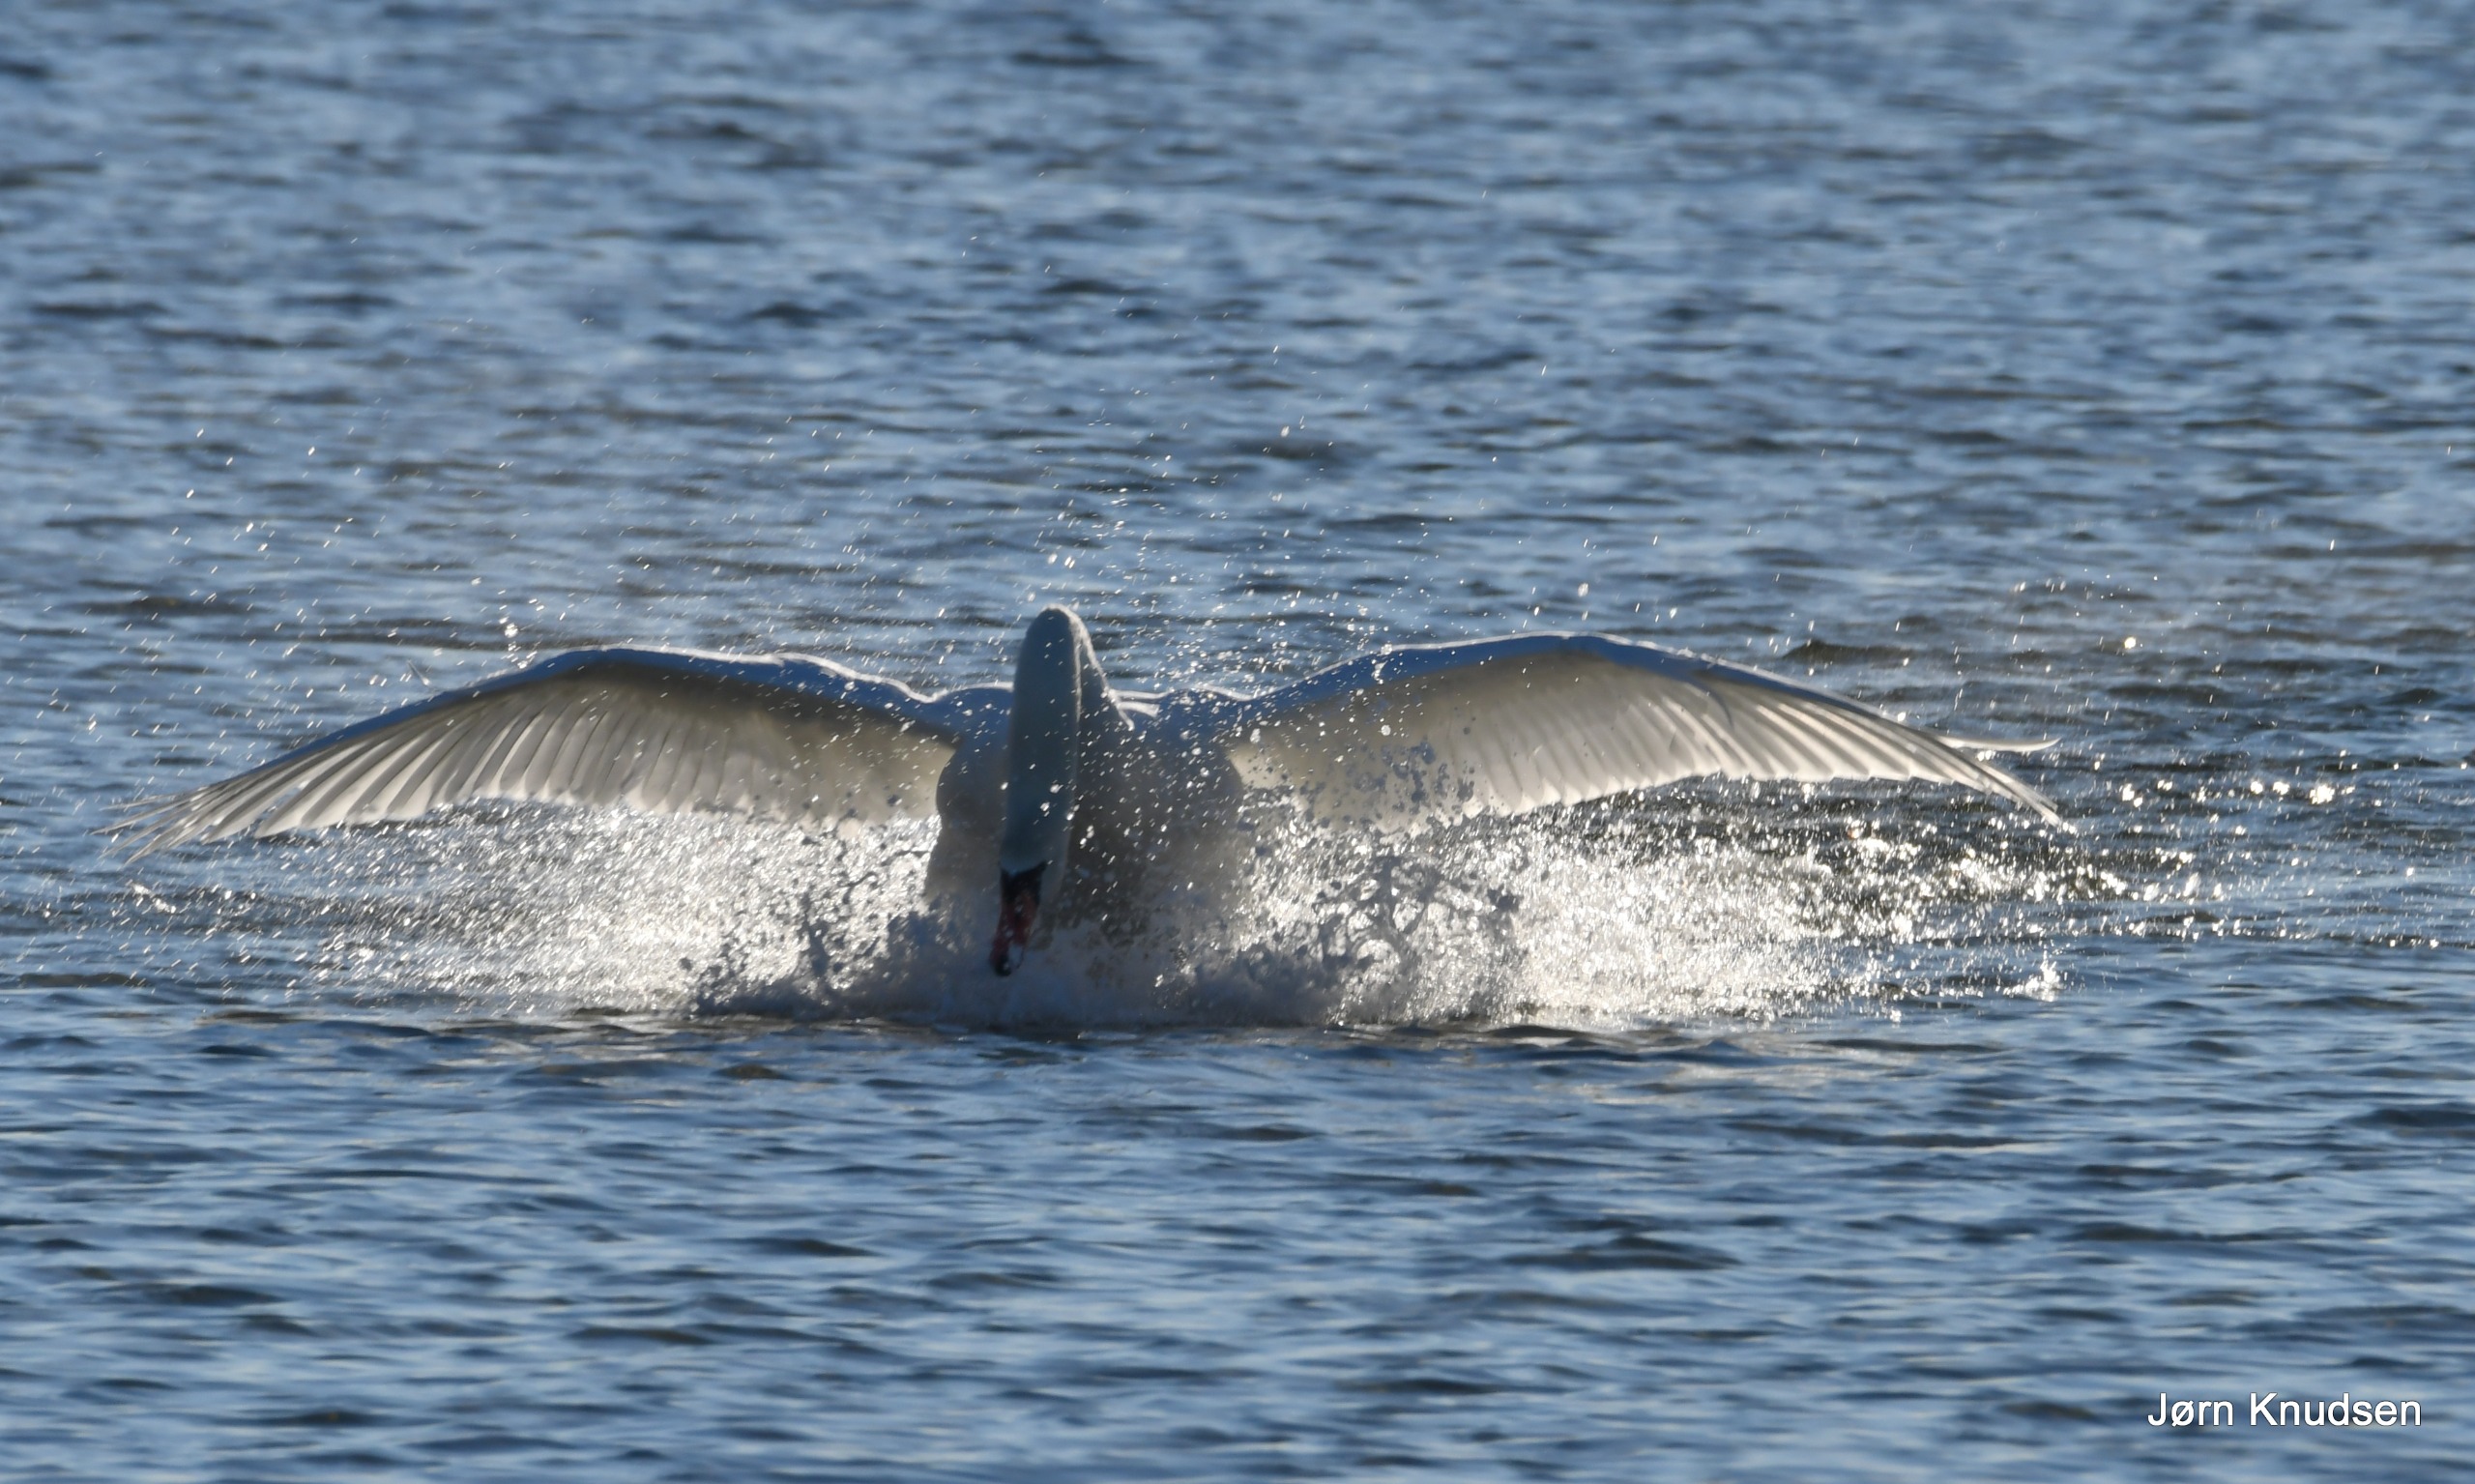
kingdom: Animalia
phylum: Chordata
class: Aves
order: Anseriformes
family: Anatidae
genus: Cygnus
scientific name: Cygnus olor
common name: Knopsvane
